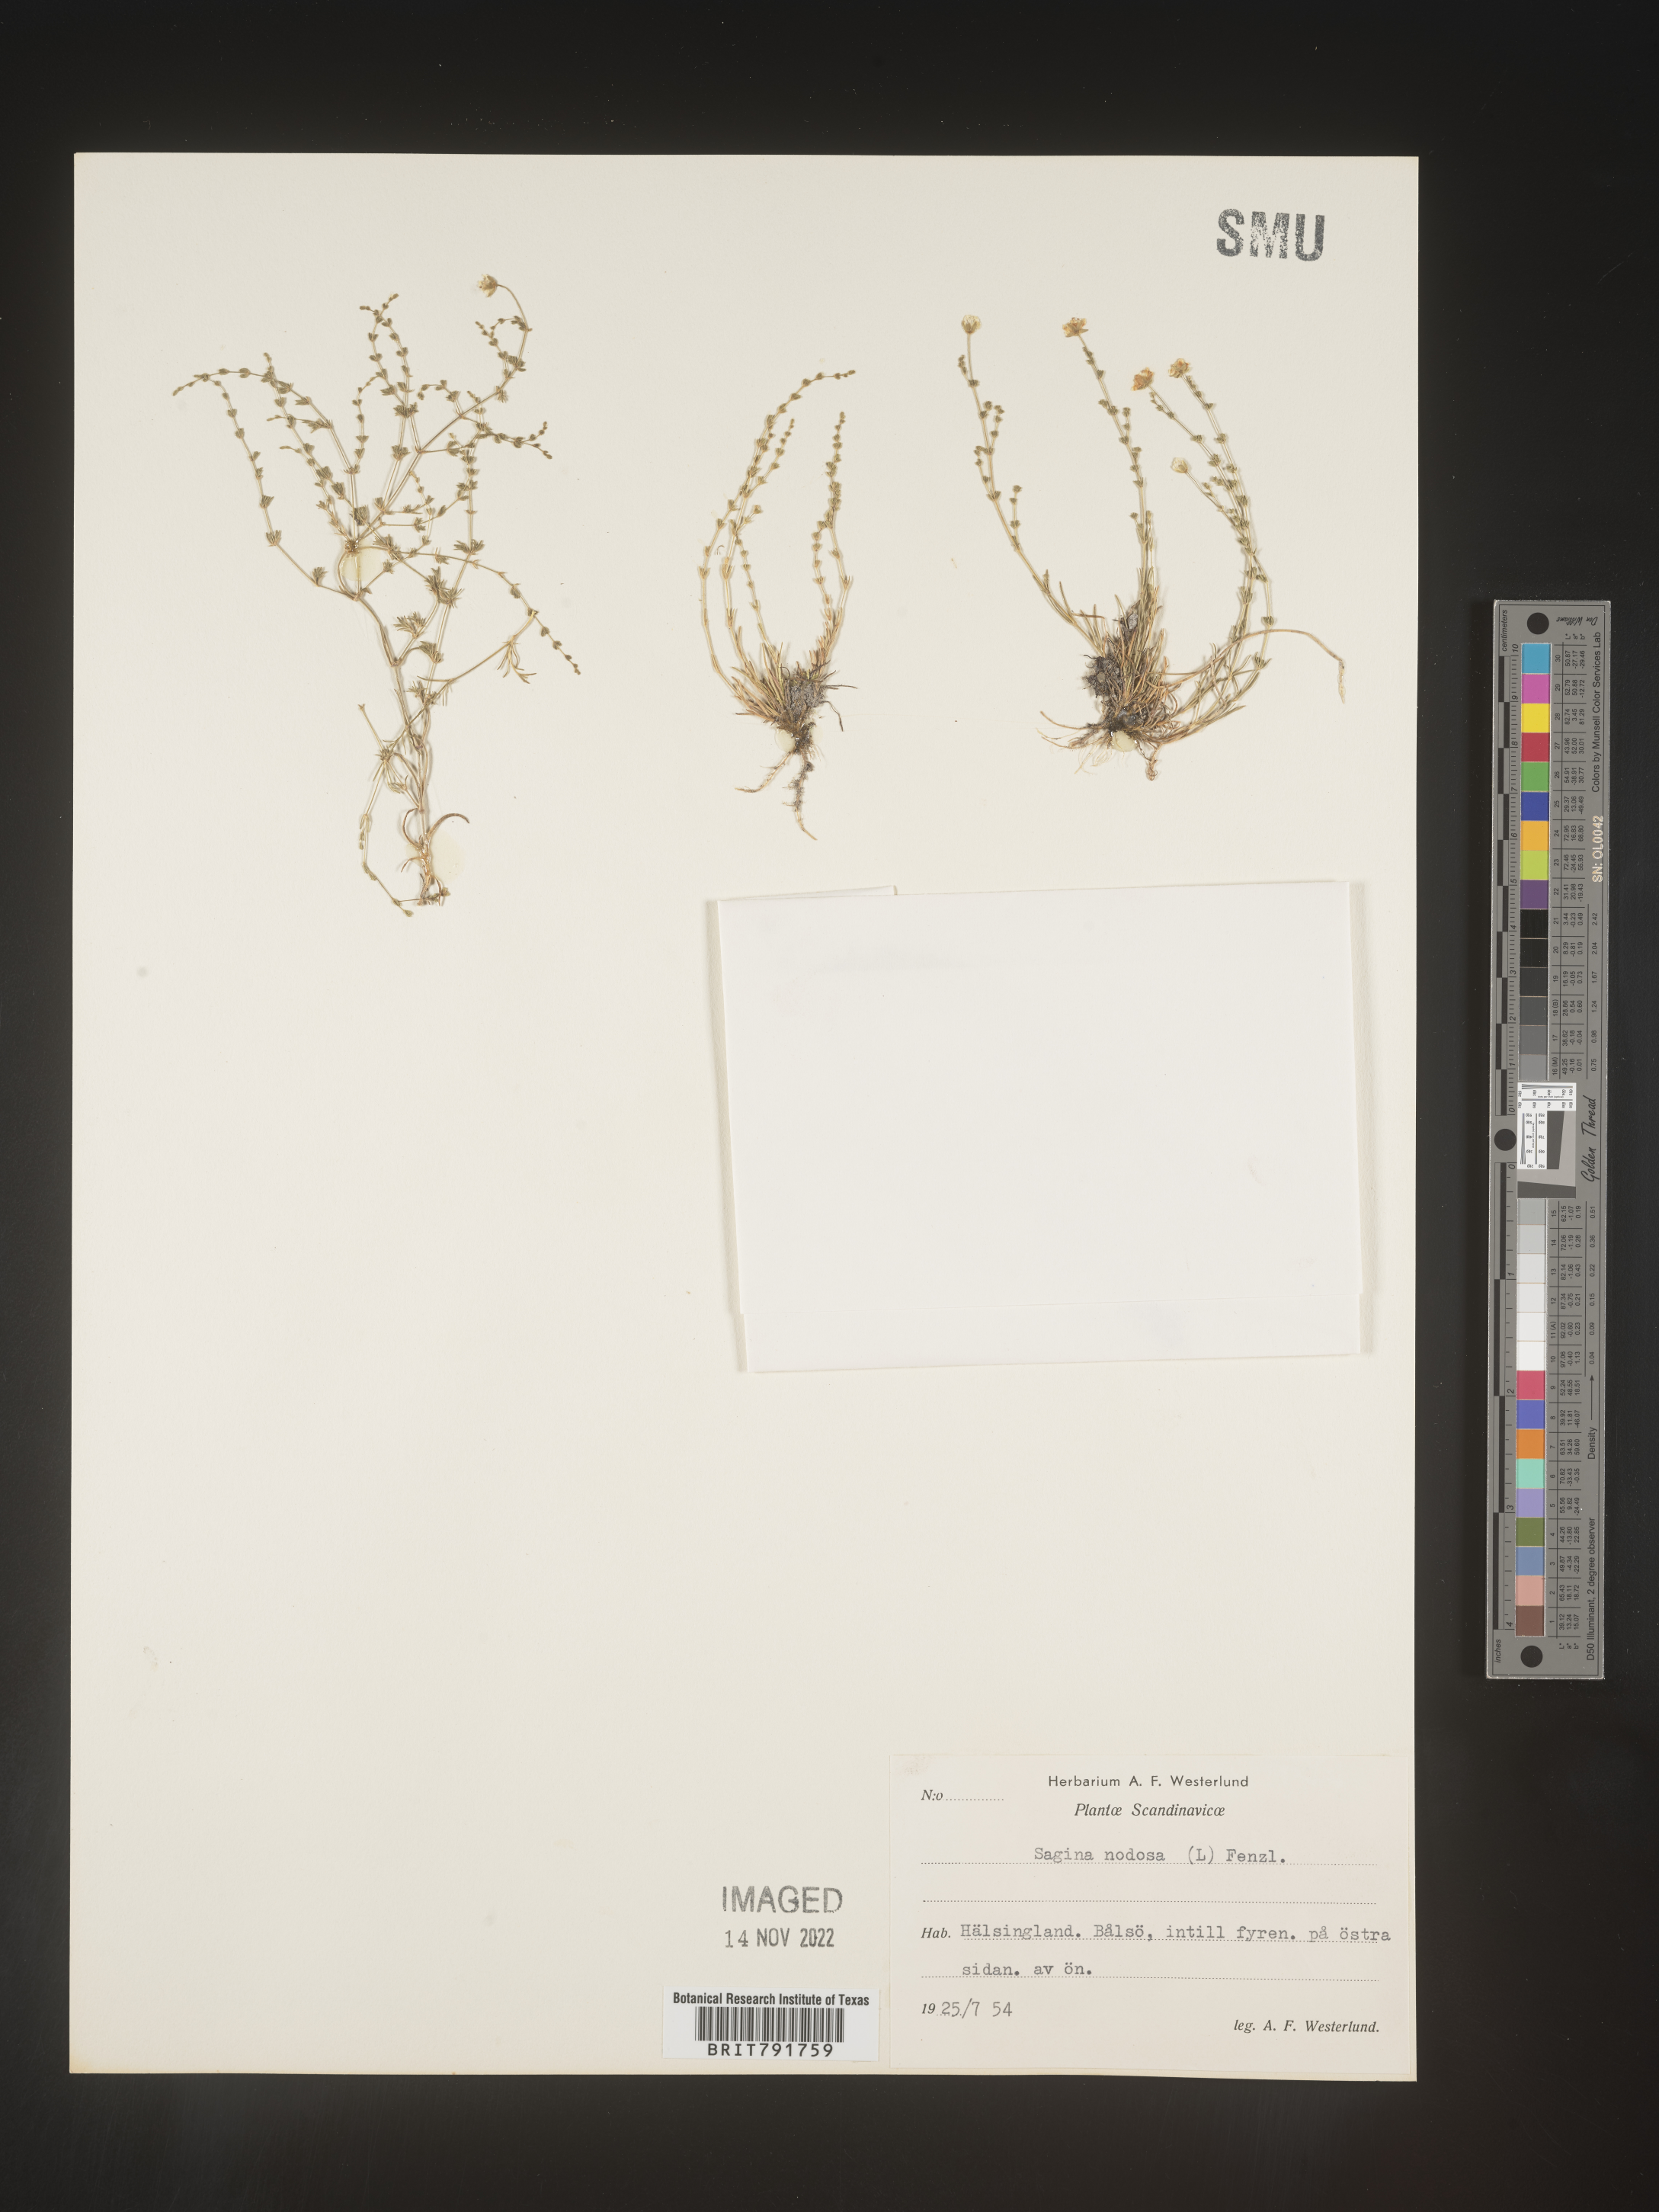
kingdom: Plantae
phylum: Tracheophyta
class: Magnoliopsida
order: Caryophyllales
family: Caryophyllaceae
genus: Sagina
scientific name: Sagina
